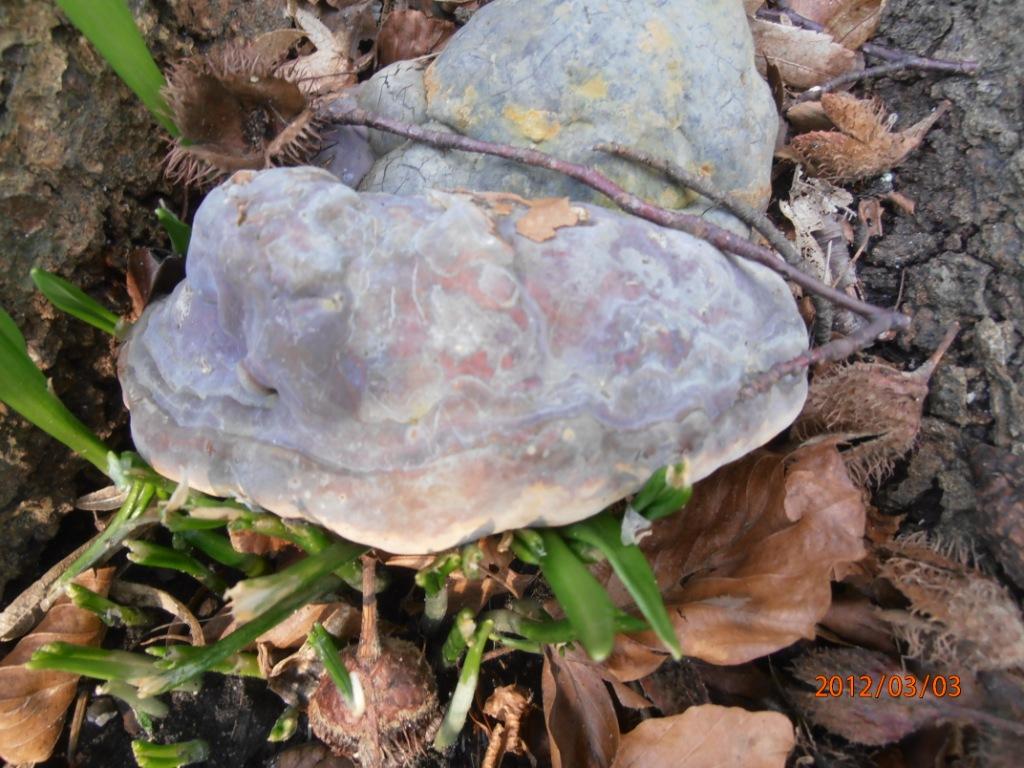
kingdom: Fungi
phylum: Basidiomycota
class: Agaricomycetes
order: Polyporales
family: Polyporaceae
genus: Ganoderma
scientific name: Ganoderma pfeifferi
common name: kobberrød lakporesvamp
